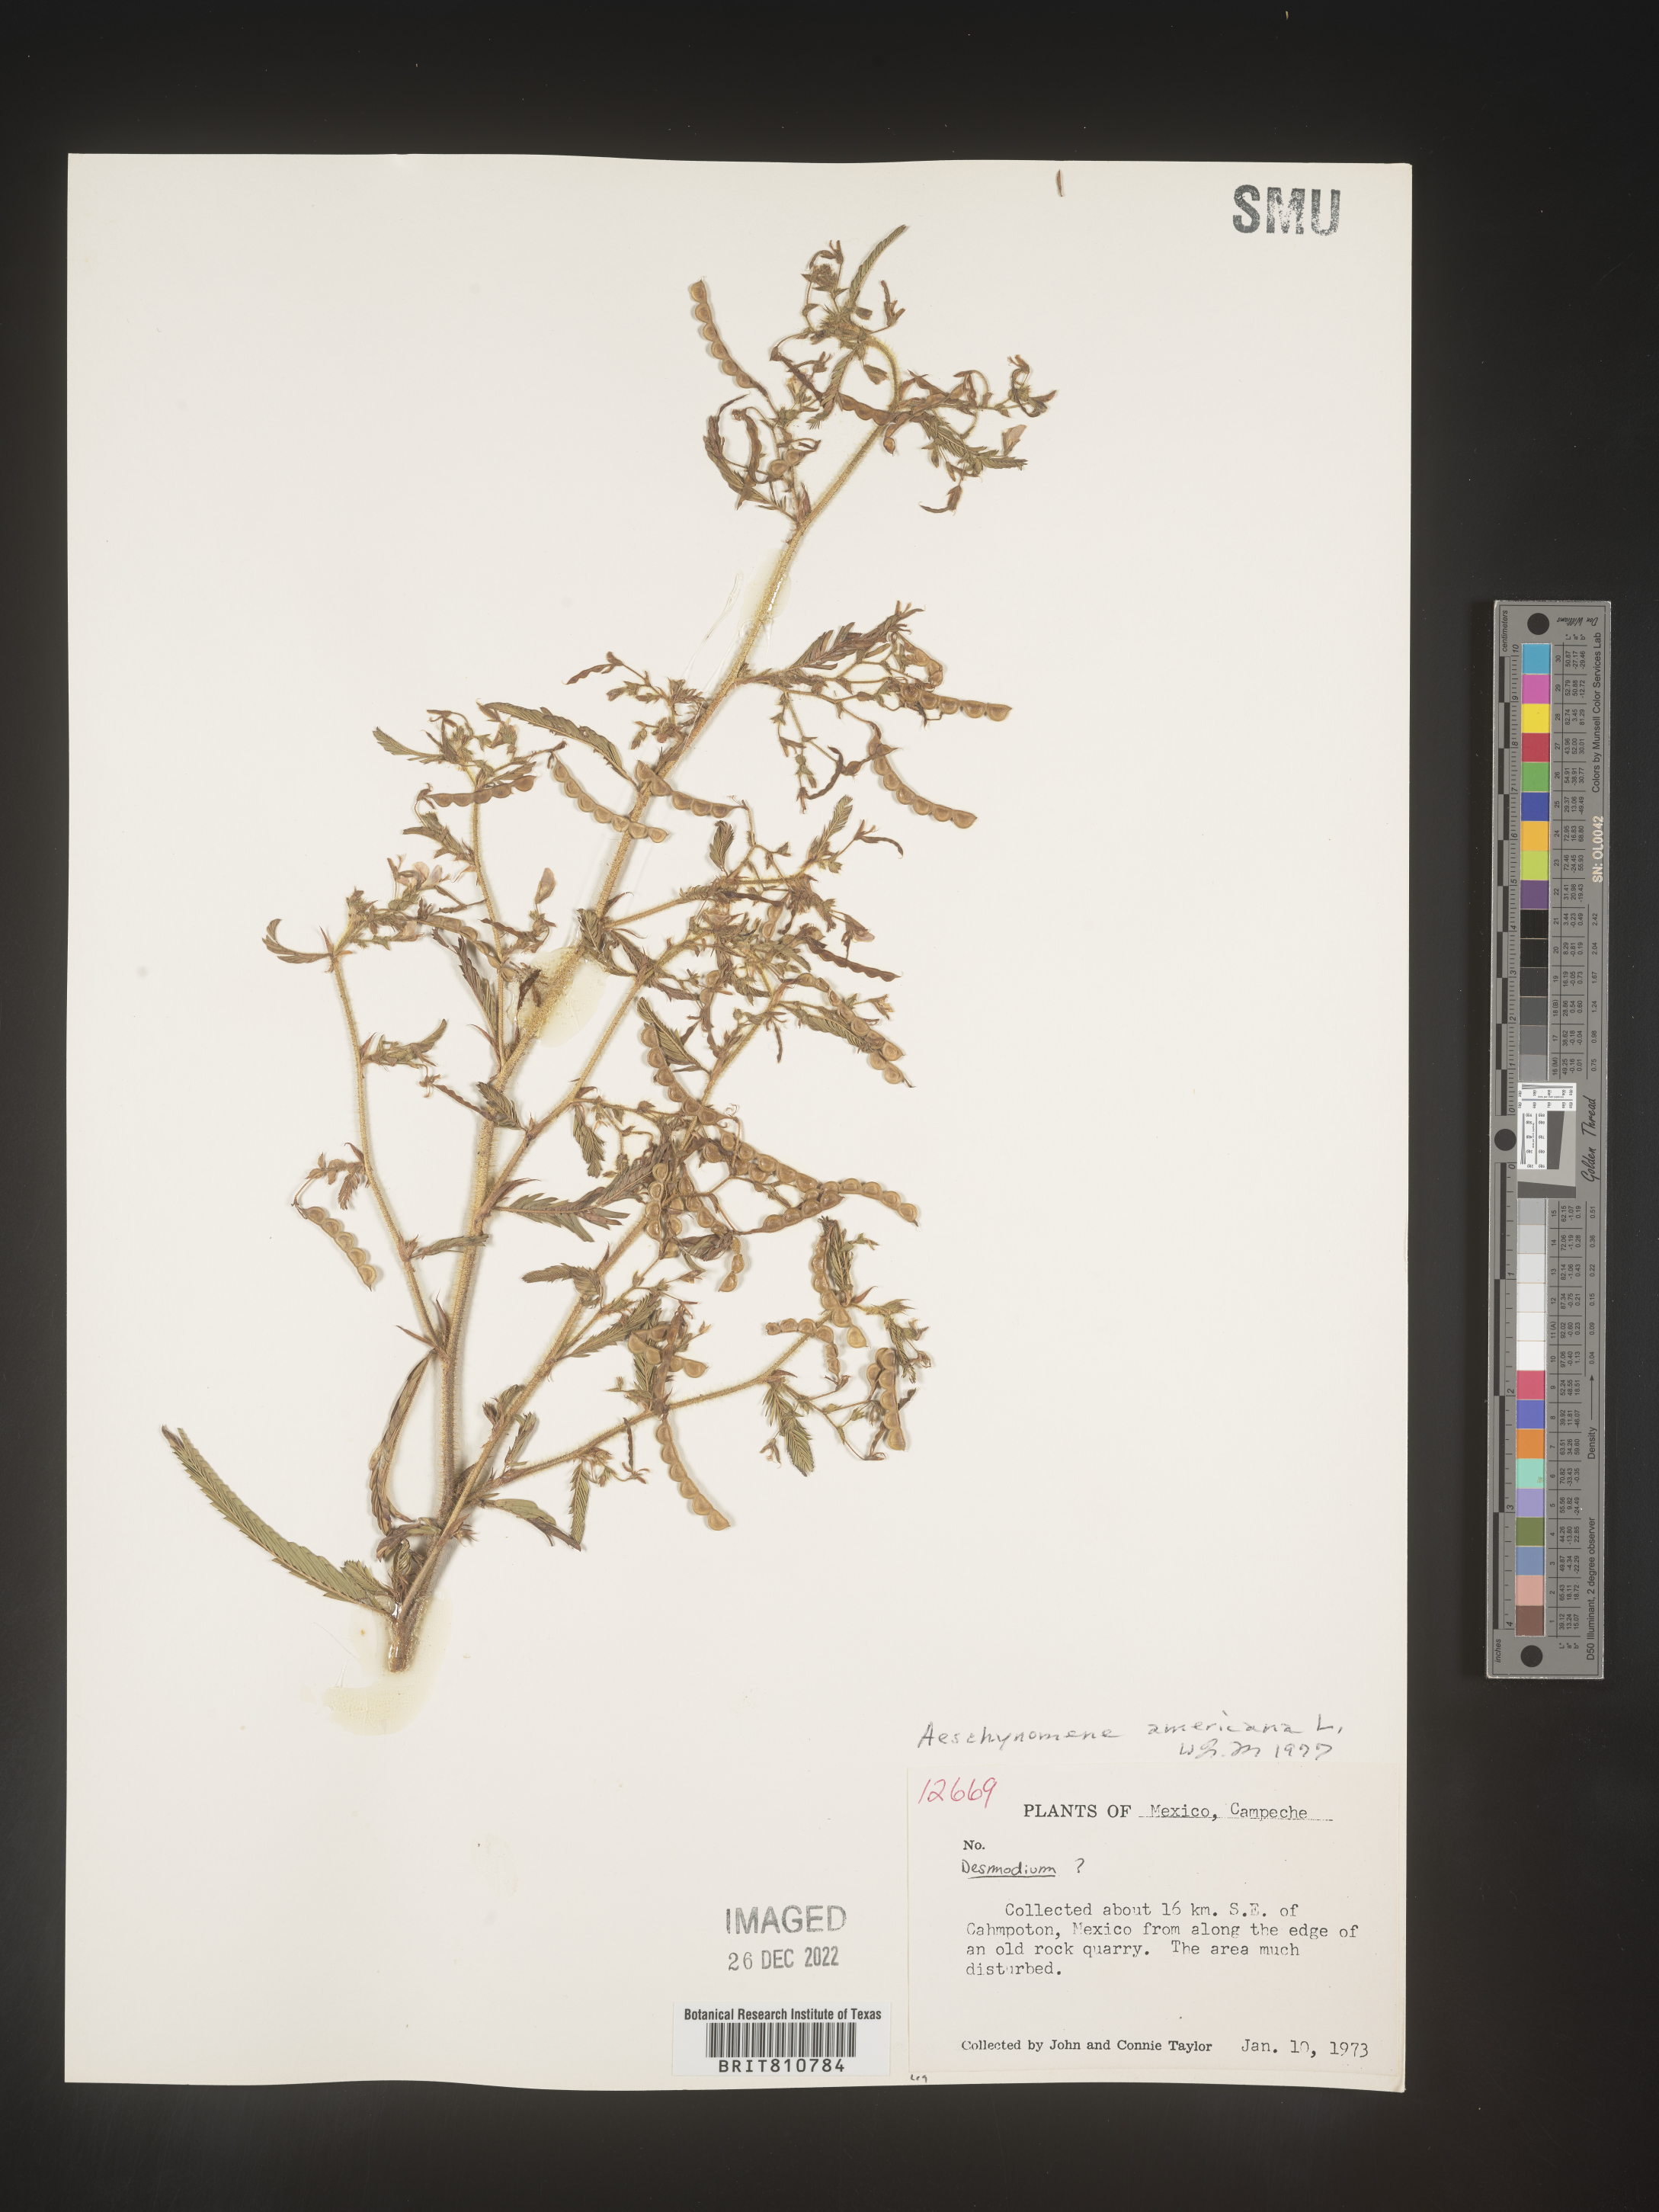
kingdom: Plantae
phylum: Tracheophyta
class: Magnoliopsida
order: Fabales
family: Fabaceae
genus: Aeschynomene
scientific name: Aeschynomene
